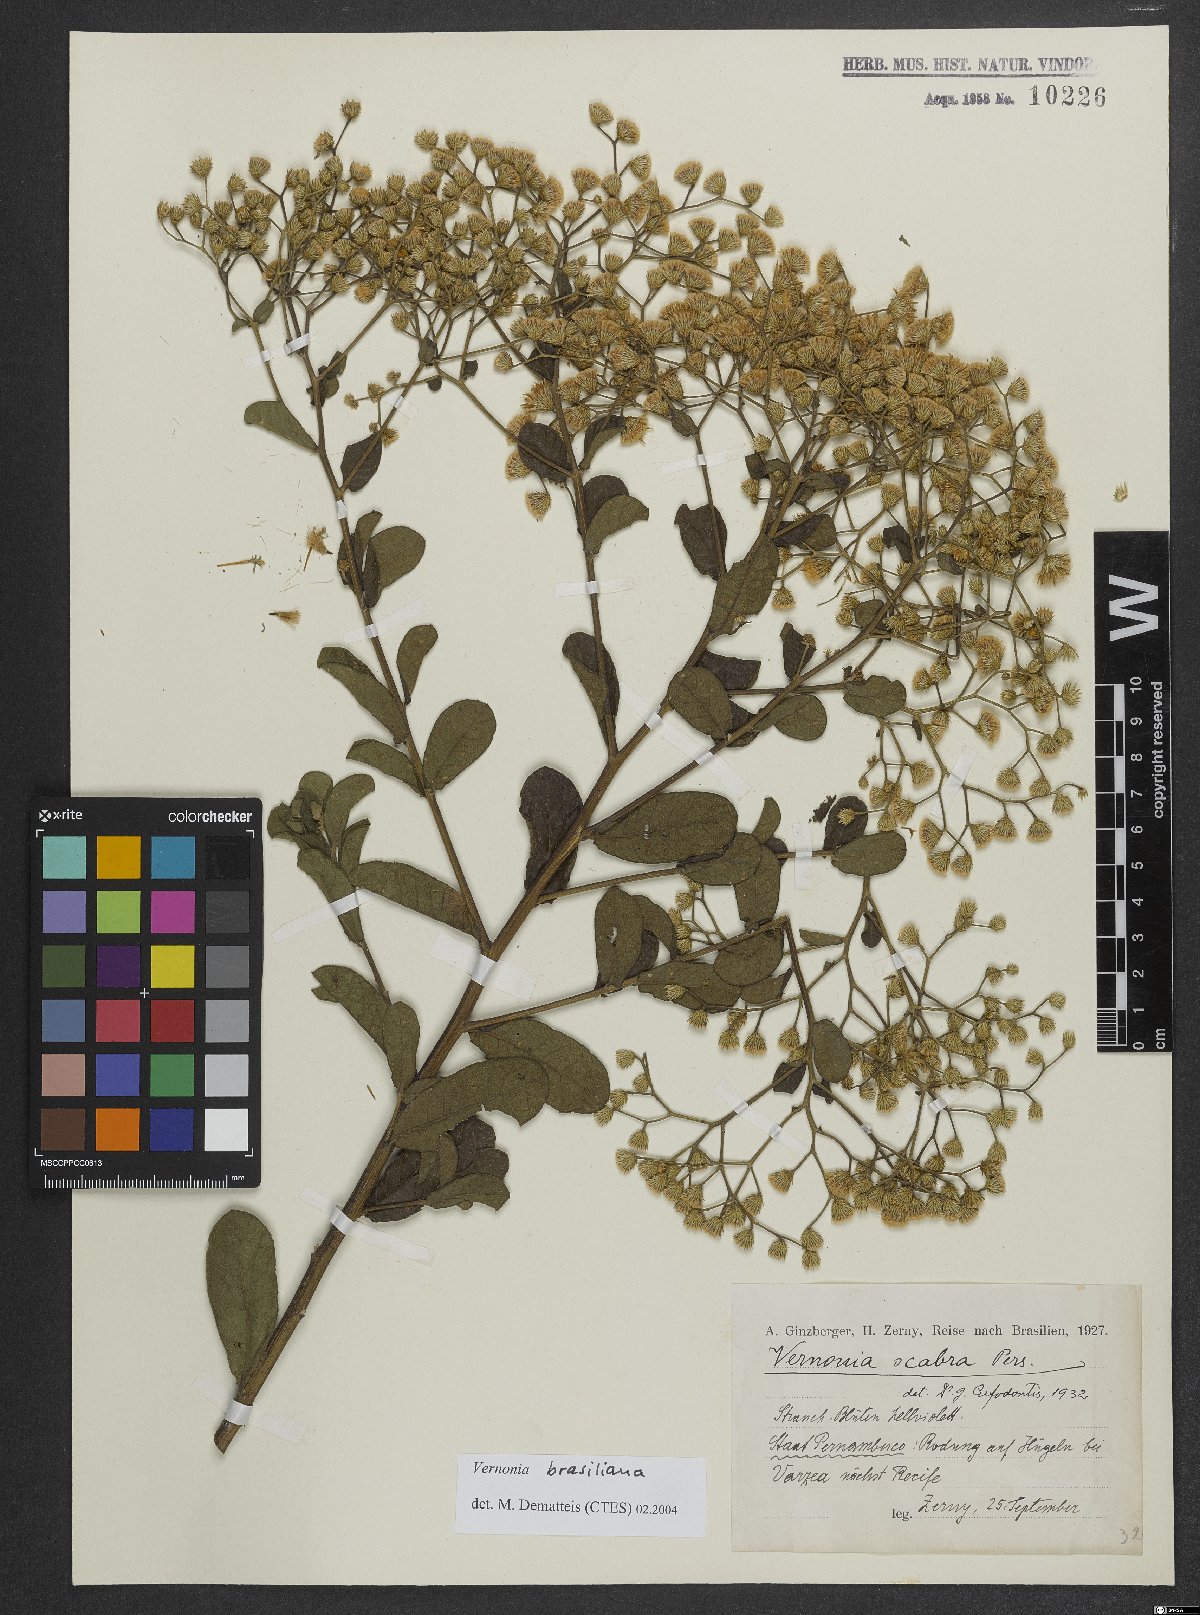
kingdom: Plantae
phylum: Tracheophyta
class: Magnoliopsida
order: Asterales
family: Asteraceae
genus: Vernonanthura
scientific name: Vernonanthura brasiliana
